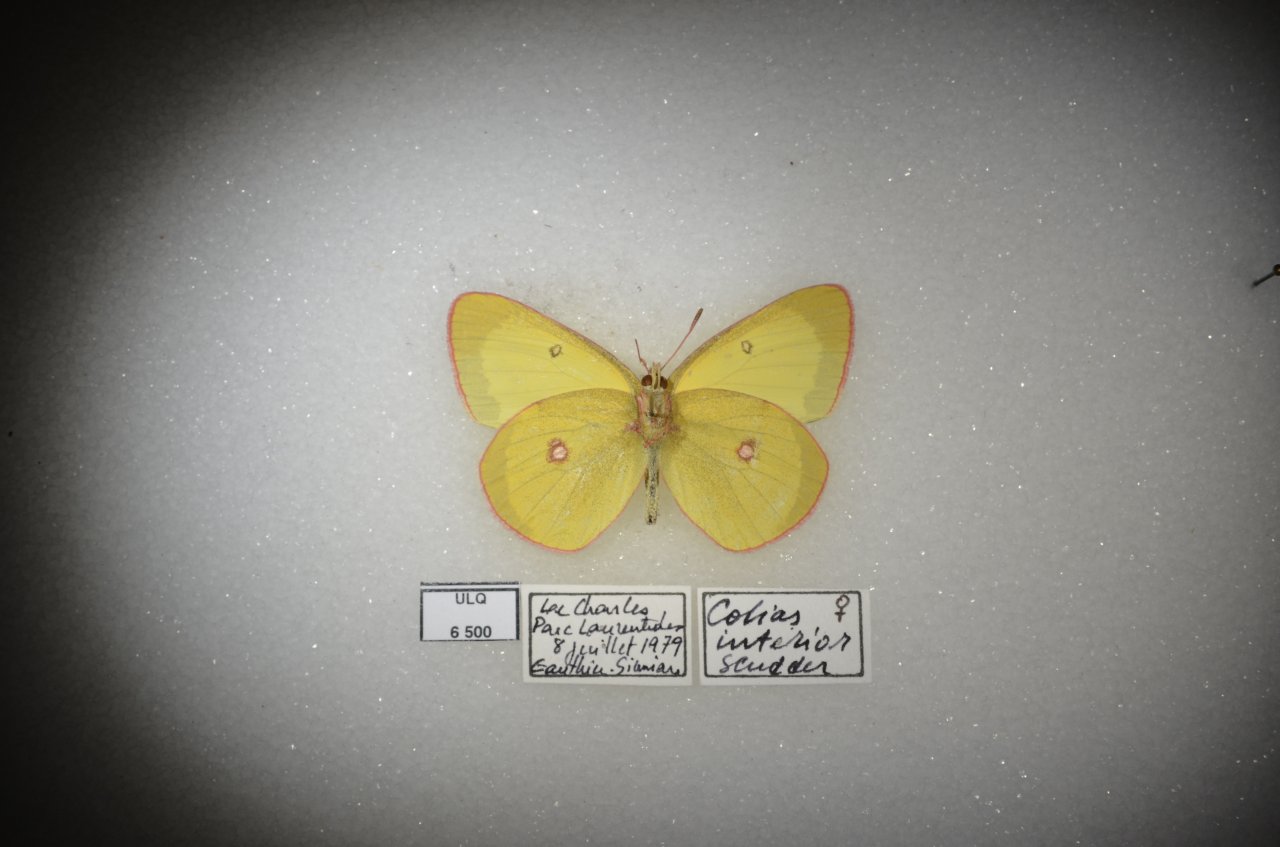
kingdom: Animalia
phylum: Arthropoda
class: Insecta
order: Lepidoptera
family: Pieridae
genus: Colias
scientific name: Colias interior
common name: Pink-edged Sulphur
